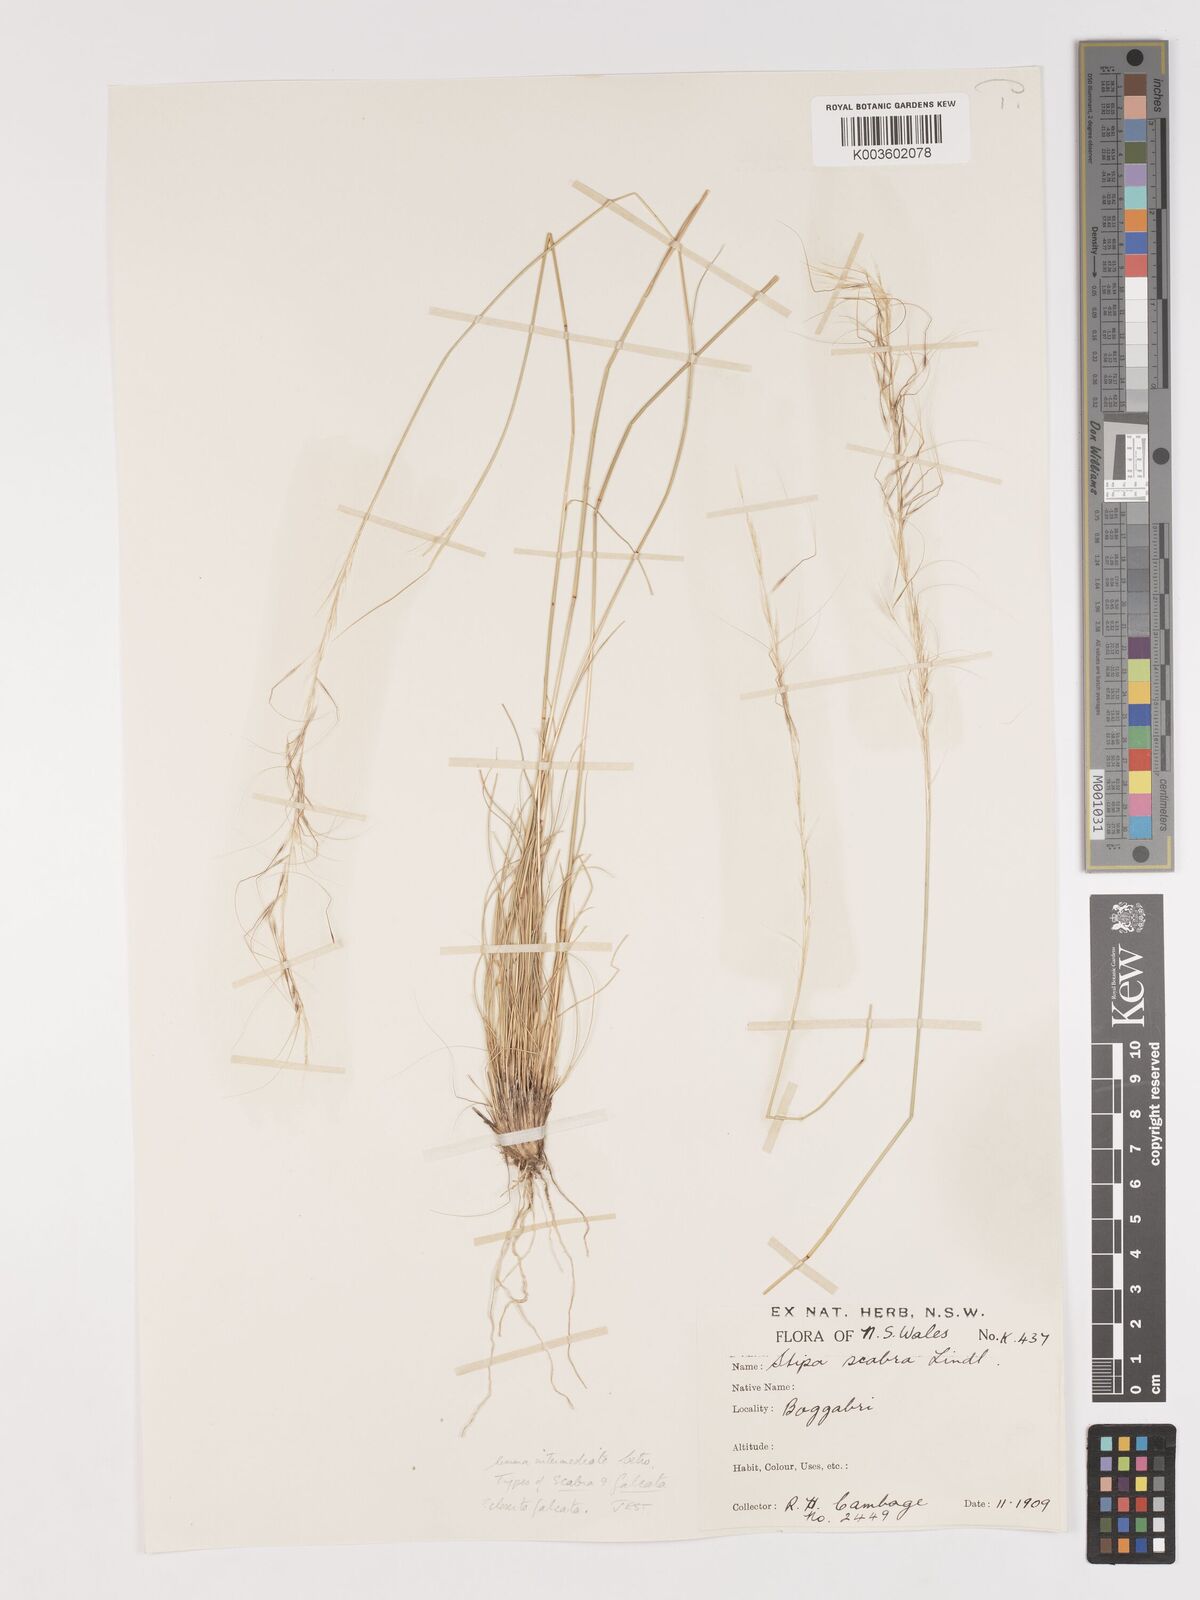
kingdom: Plantae
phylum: Tracheophyta
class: Liliopsida
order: Poales
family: Poaceae
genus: Austrostipa
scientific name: Austrostipa scabra
